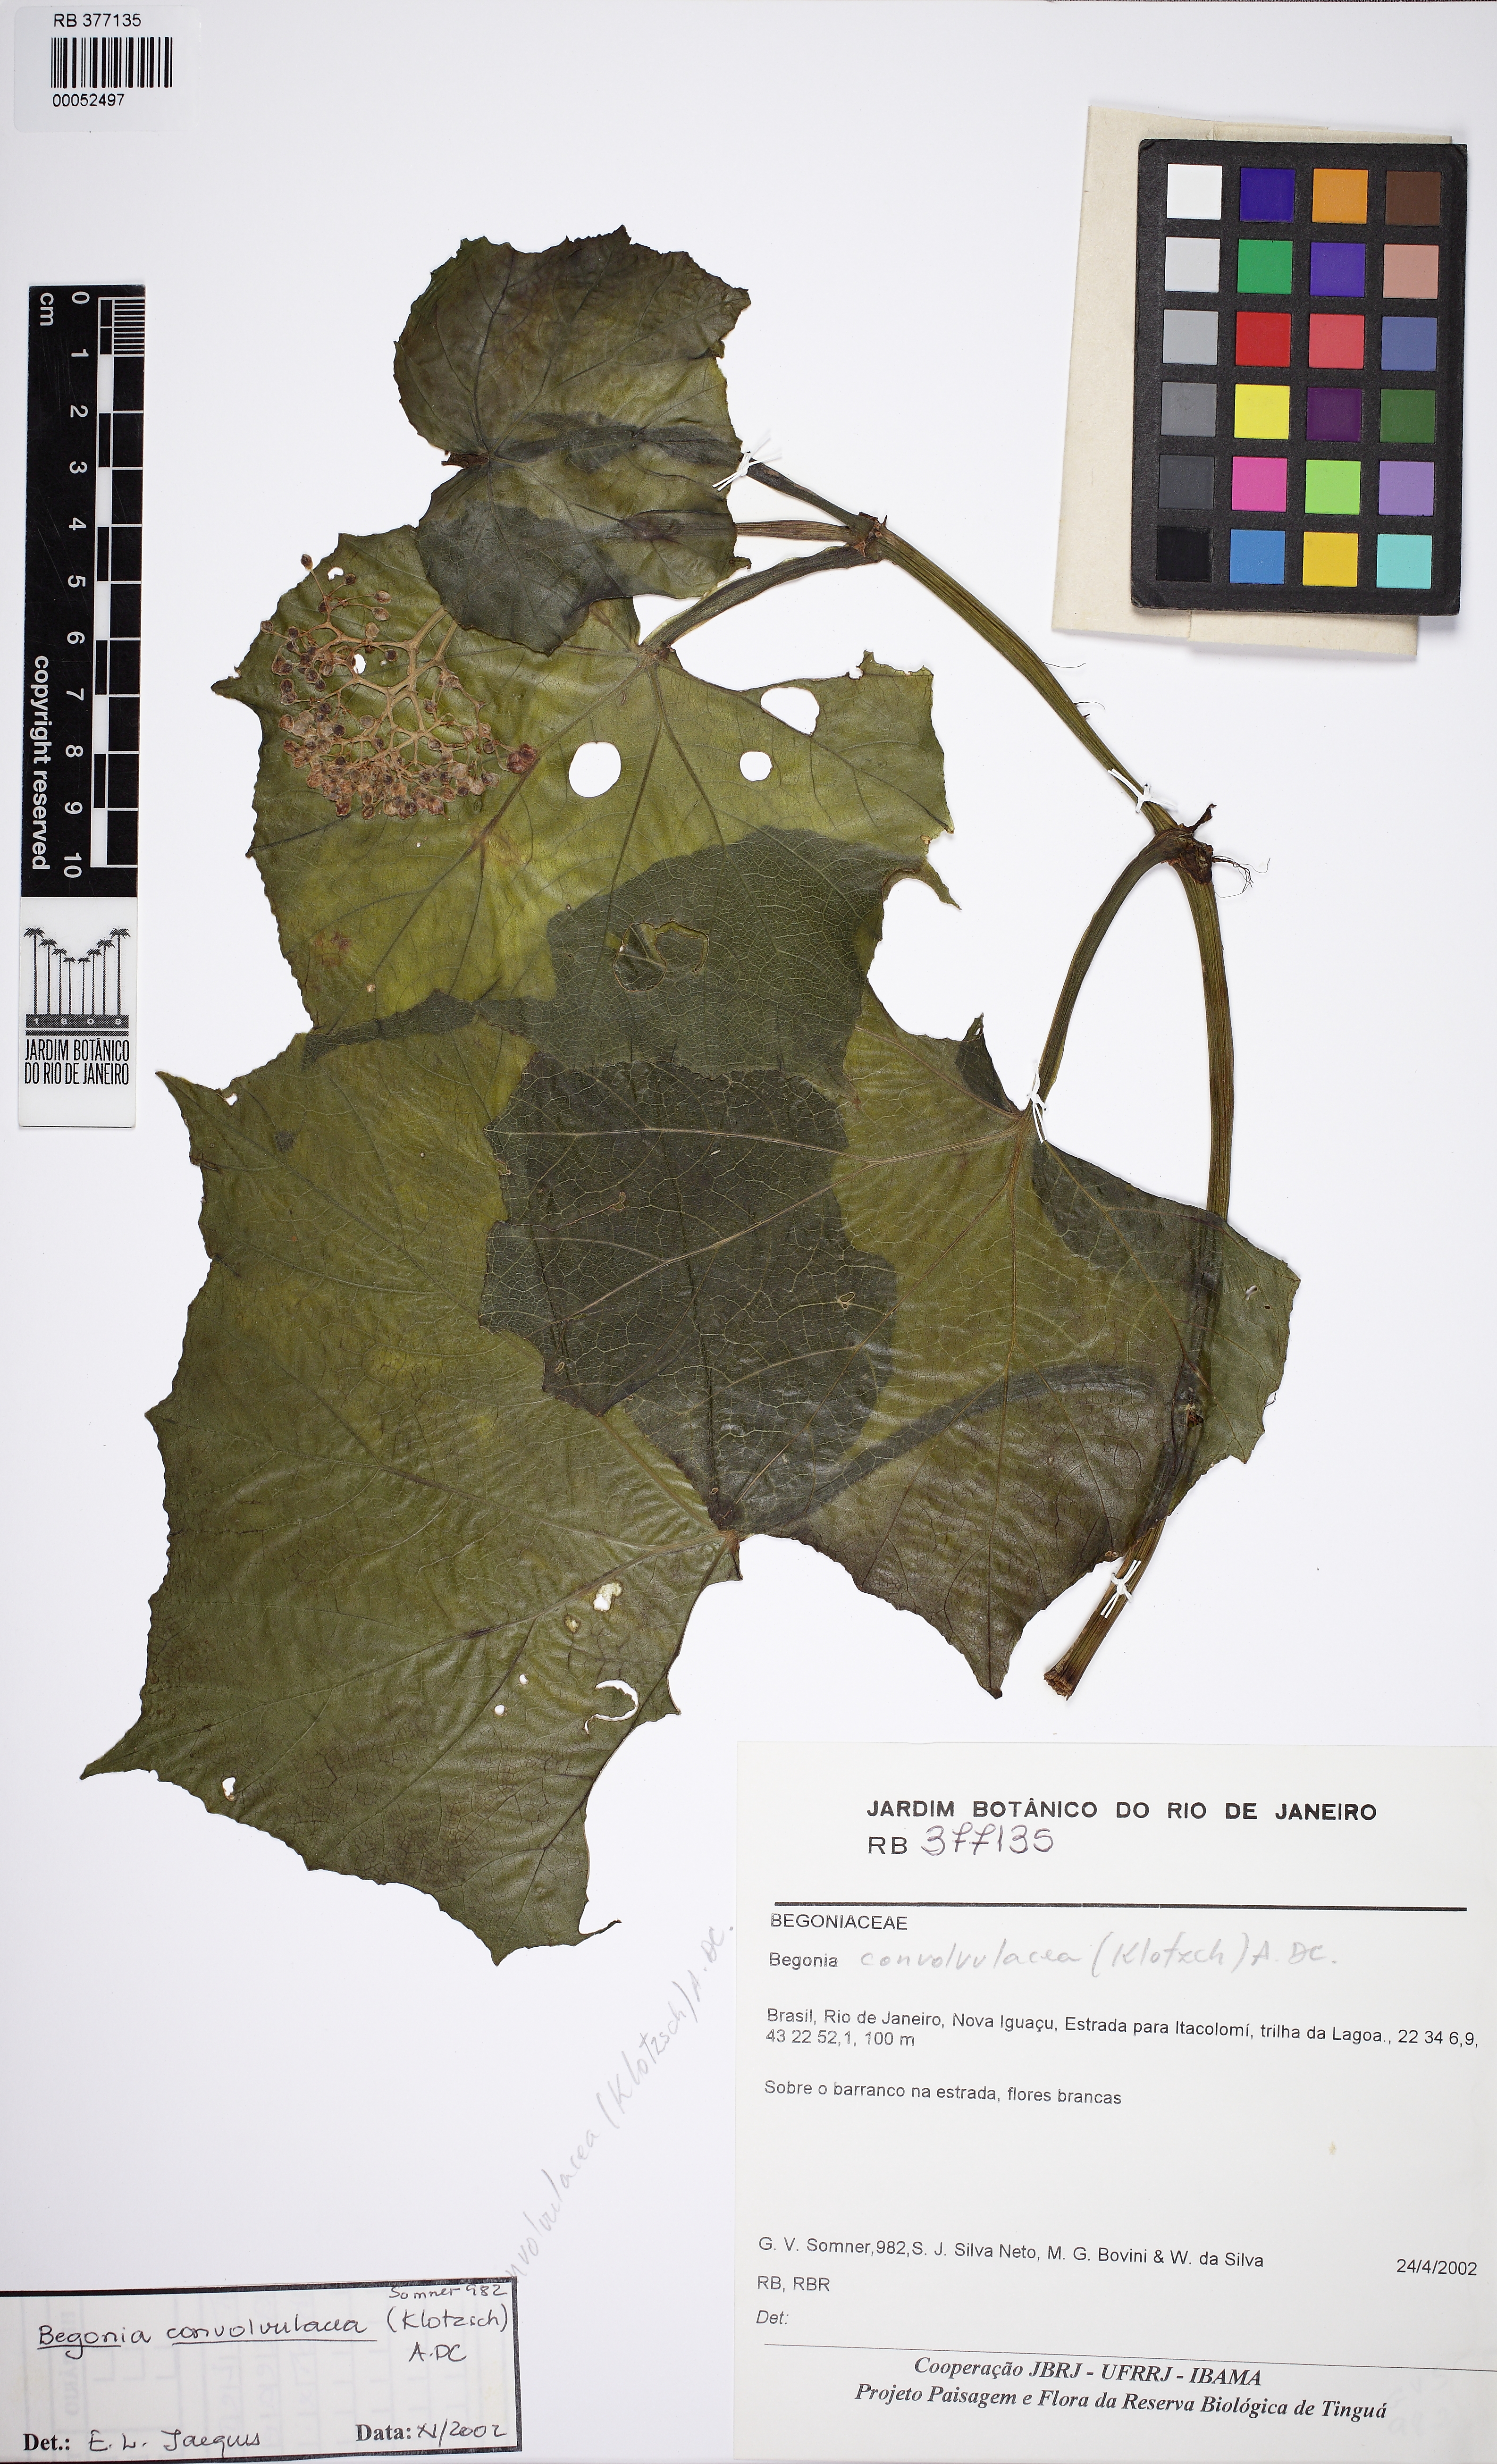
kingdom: Plantae
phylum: Tracheophyta
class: Magnoliopsida
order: Cucurbitales
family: Begoniaceae
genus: Begonia
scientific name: Begonia convolvulacea
